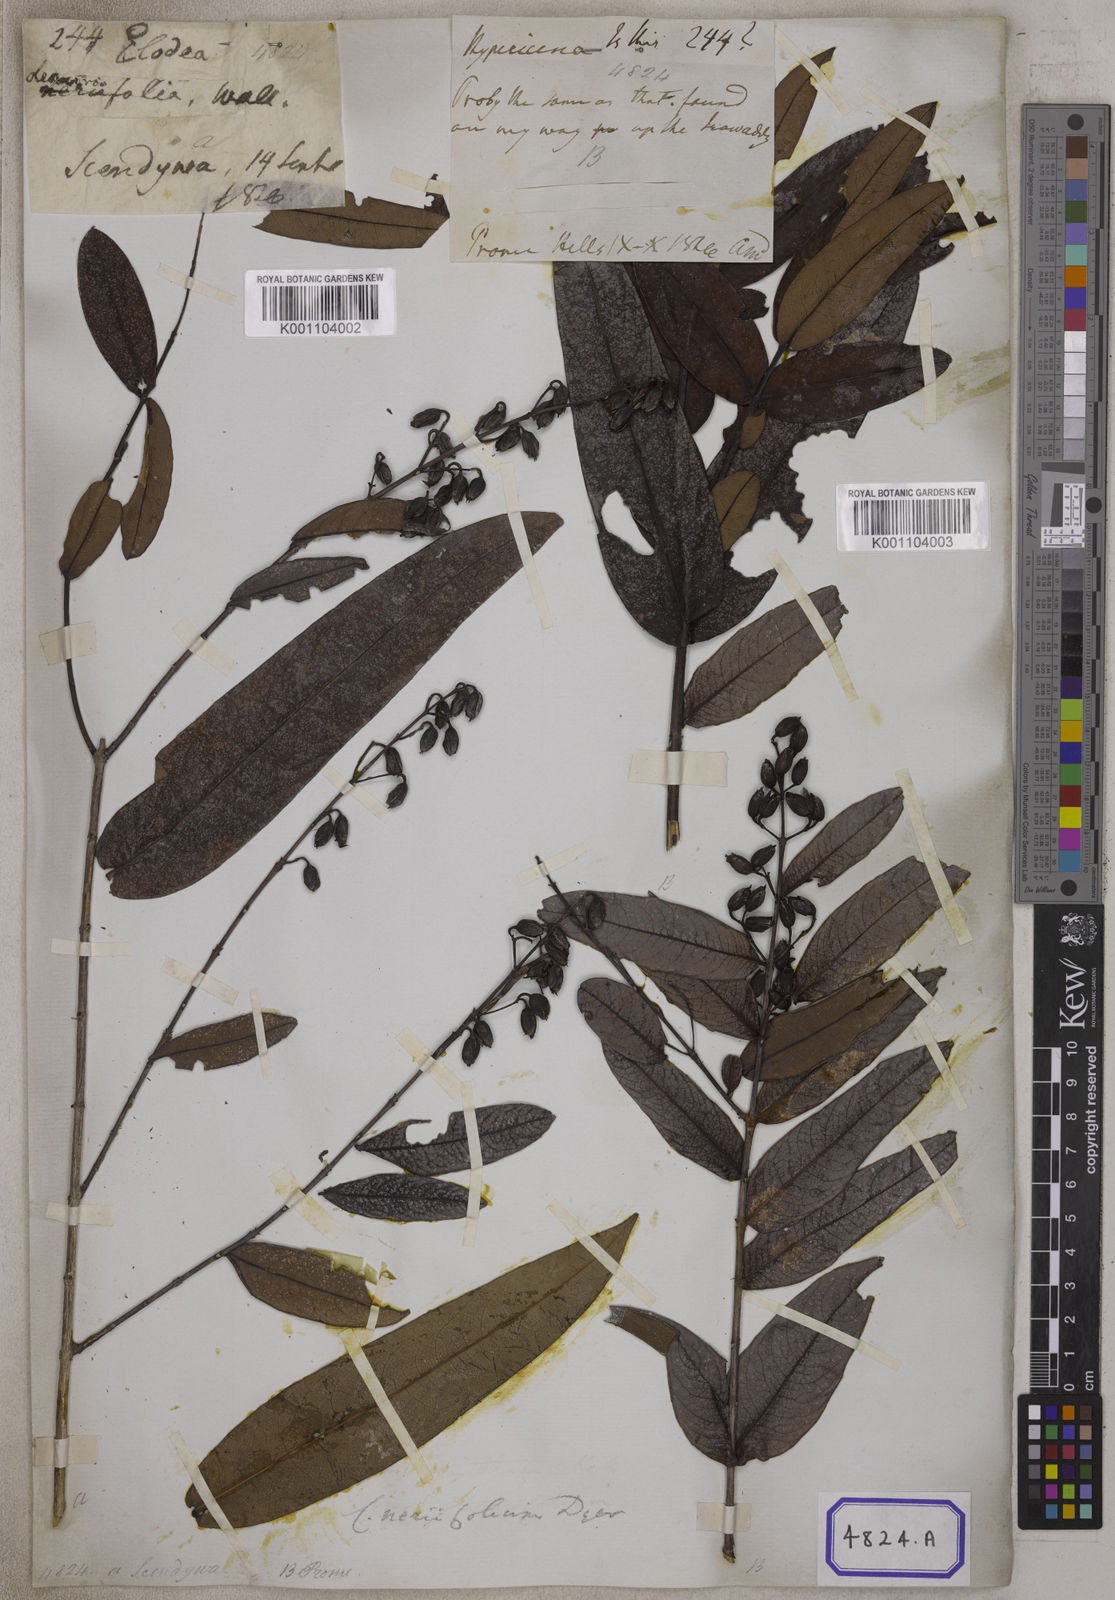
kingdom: Plantae
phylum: Tracheophyta
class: Magnoliopsida
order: Malpighiales
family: Hypericaceae
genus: Cratoxylum
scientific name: Cratoxylum neriifolium
